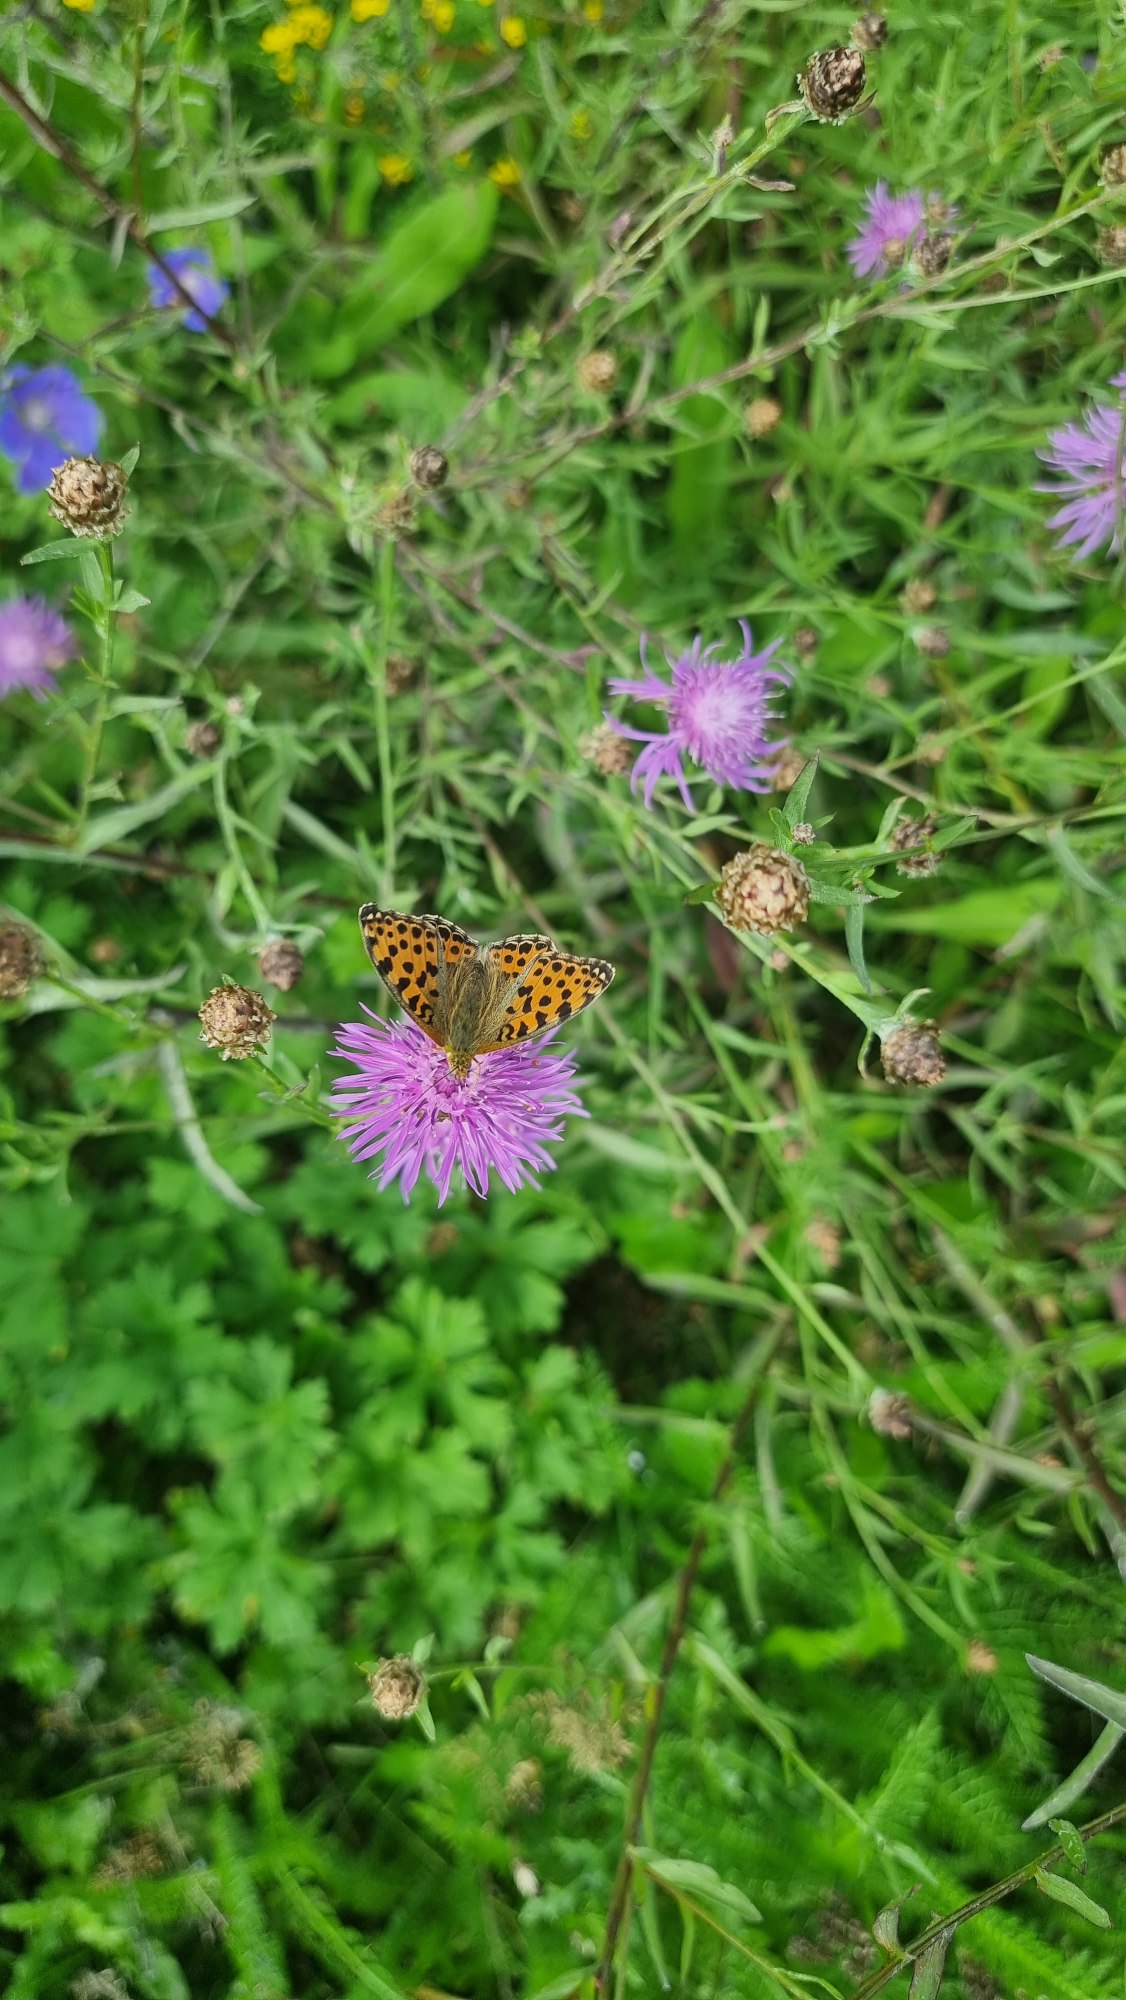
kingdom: Animalia
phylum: Arthropoda
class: Insecta
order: Lepidoptera
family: Nymphalidae
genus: Issoria
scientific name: Issoria lathonia
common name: Storplettet perlemorsommerfugl
